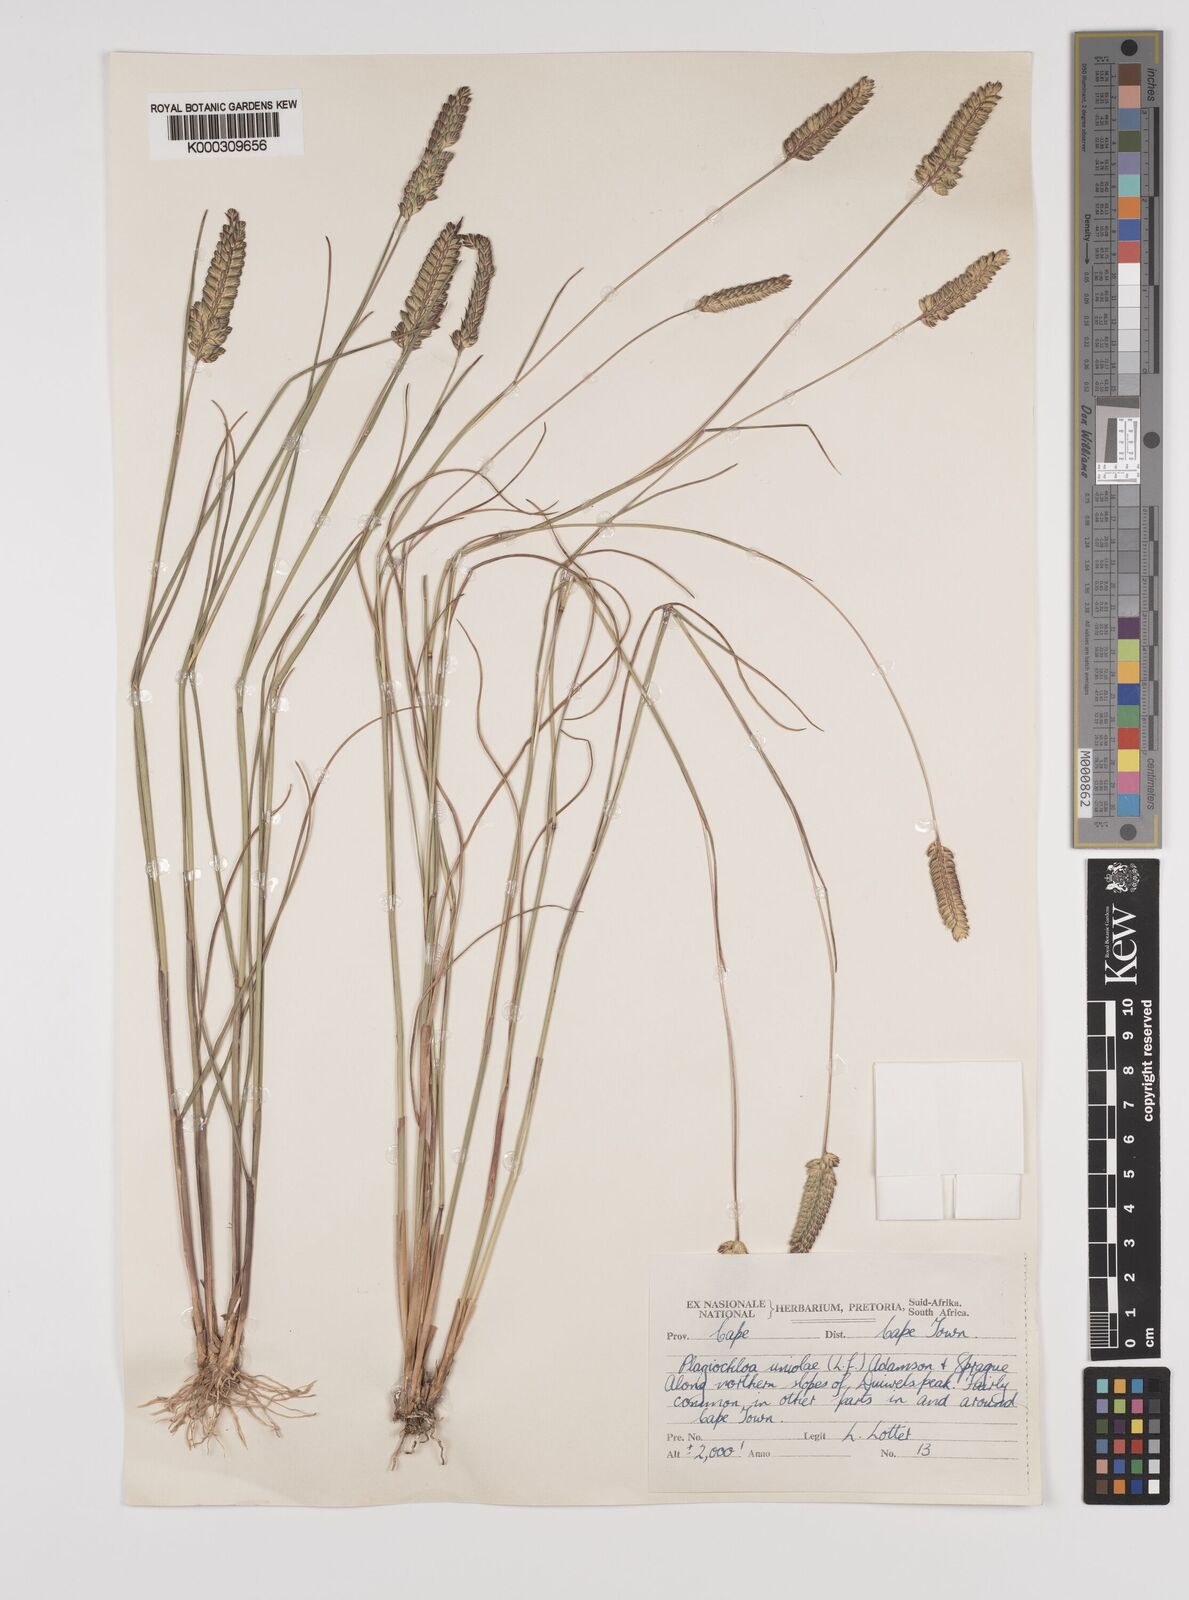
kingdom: Plantae
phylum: Tracheophyta
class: Liliopsida
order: Poales
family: Poaceae
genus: Tribolium
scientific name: Tribolium uniolae
